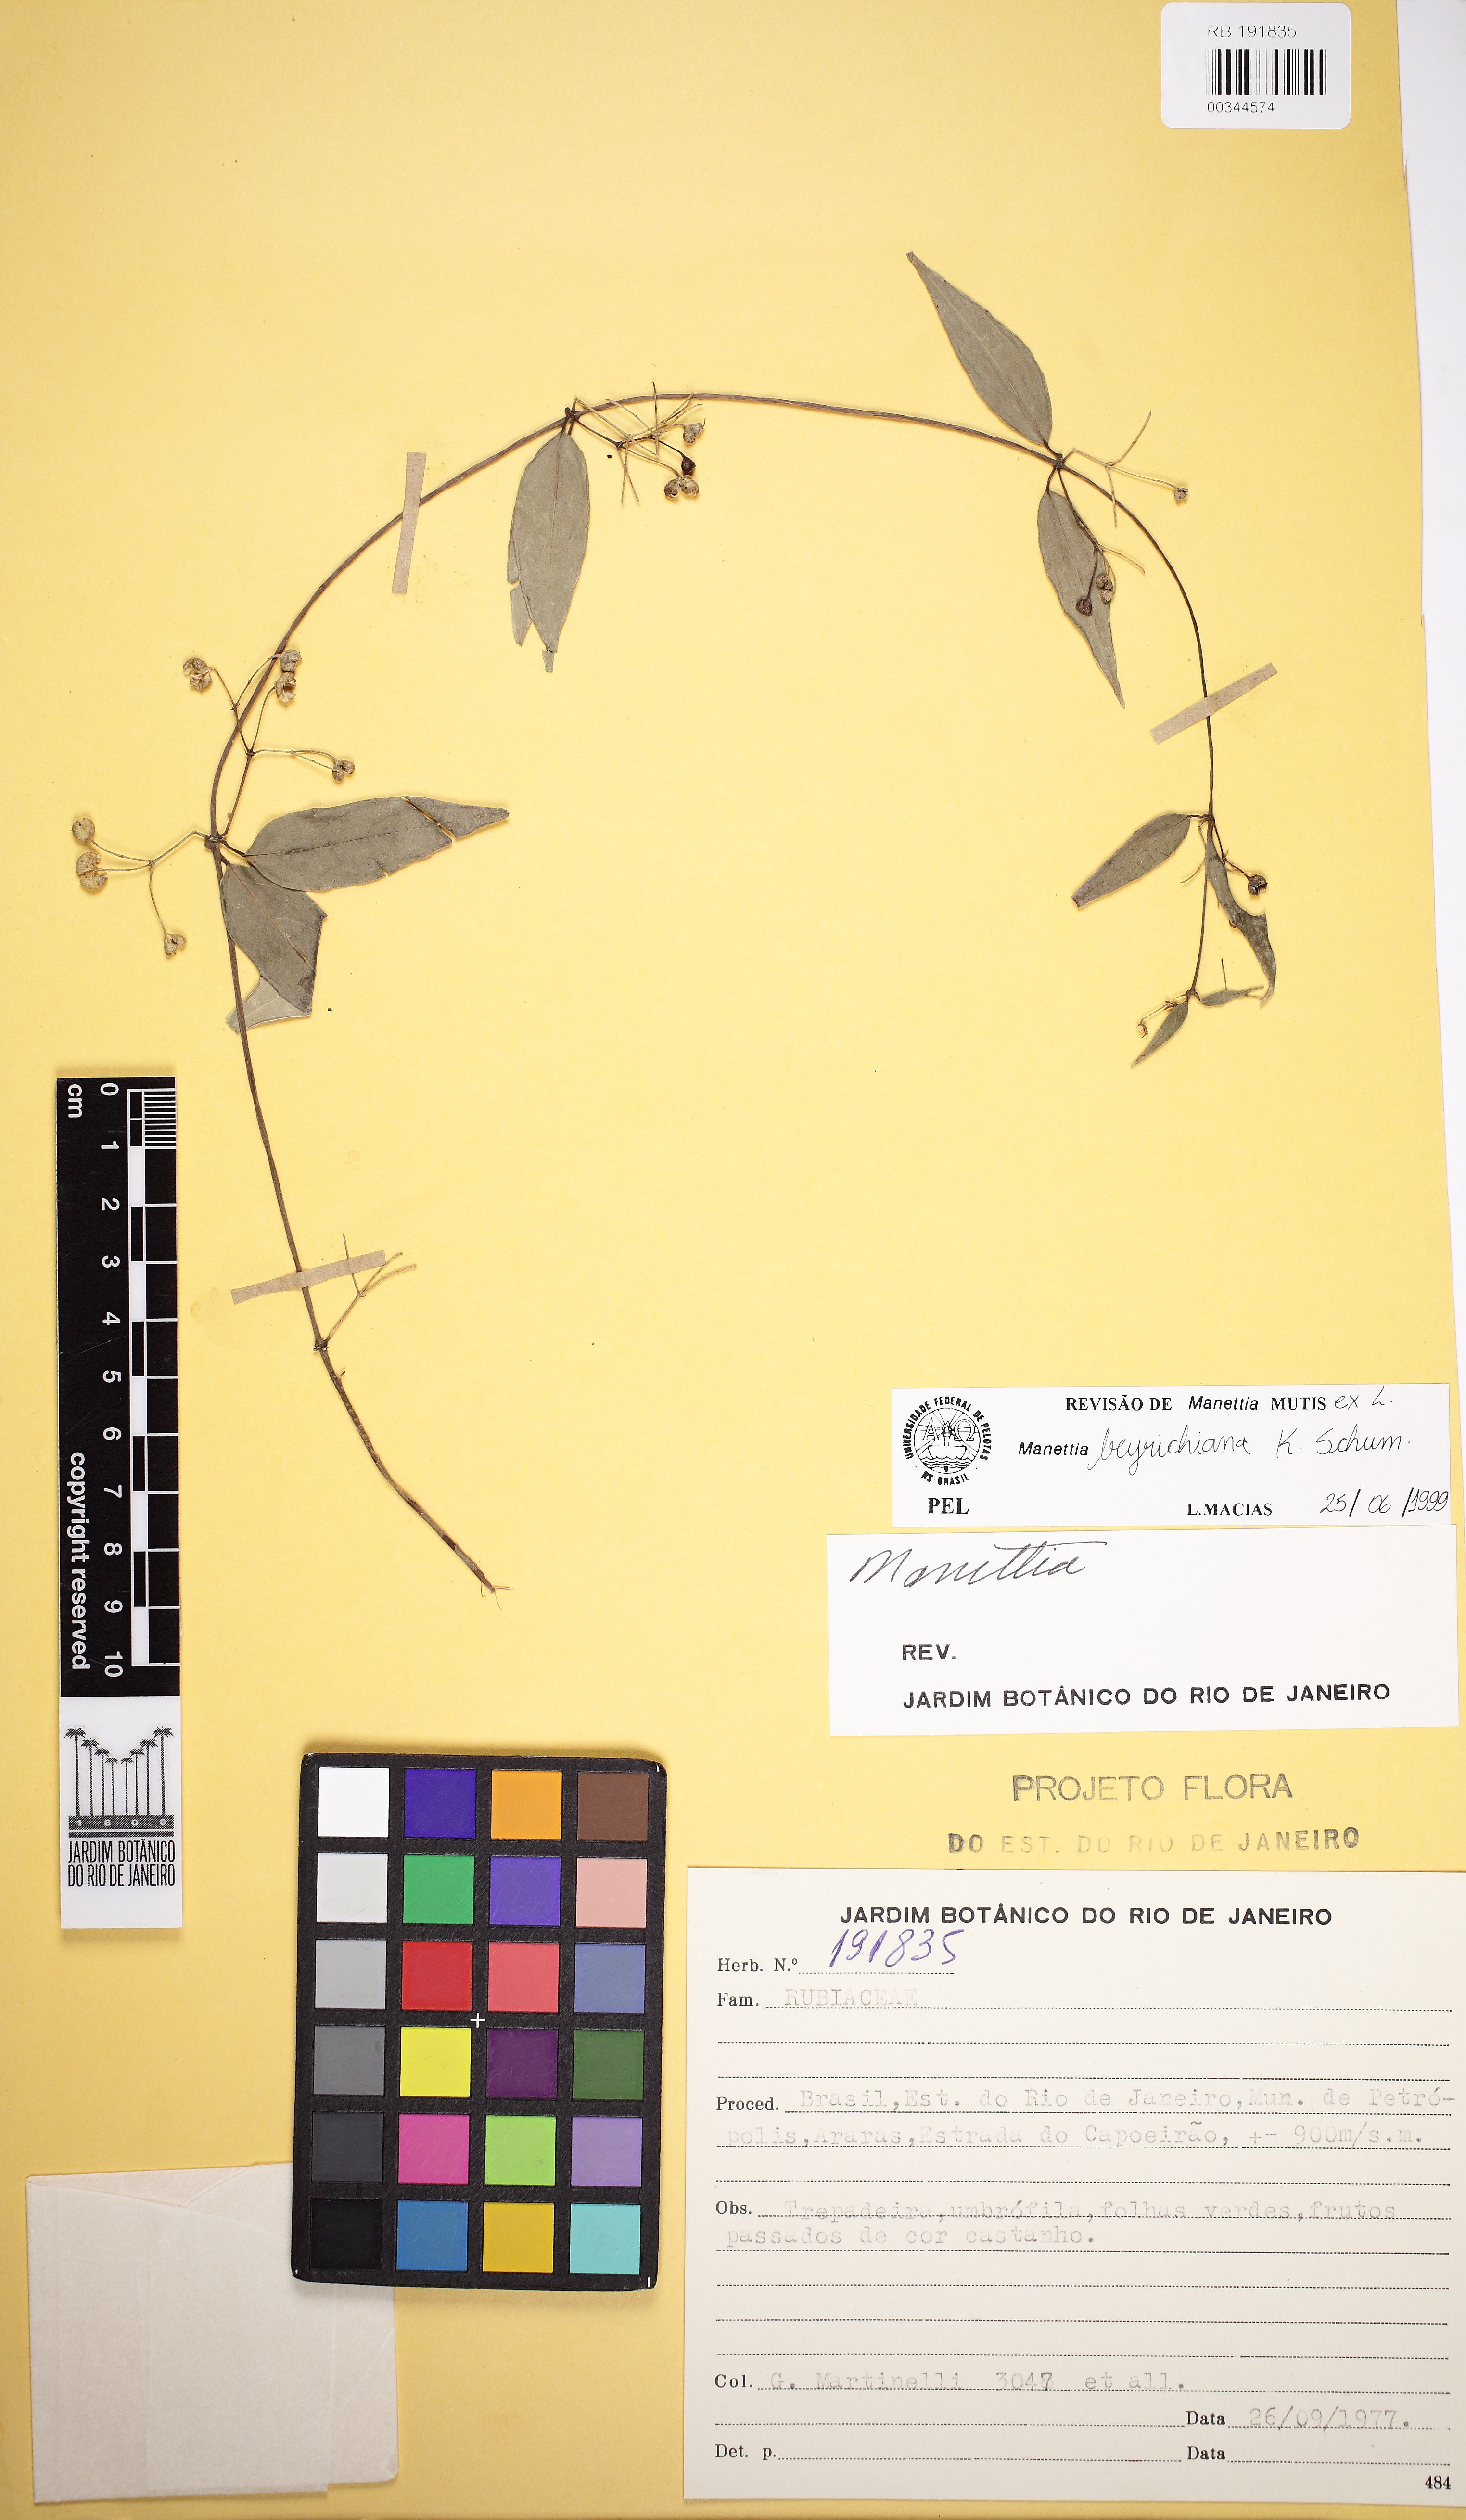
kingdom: Plantae
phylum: Tracheophyta
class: Magnoliopsida
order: Gentianales
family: Rubiaceae
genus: Manettia
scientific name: Manettia beyrichiana
